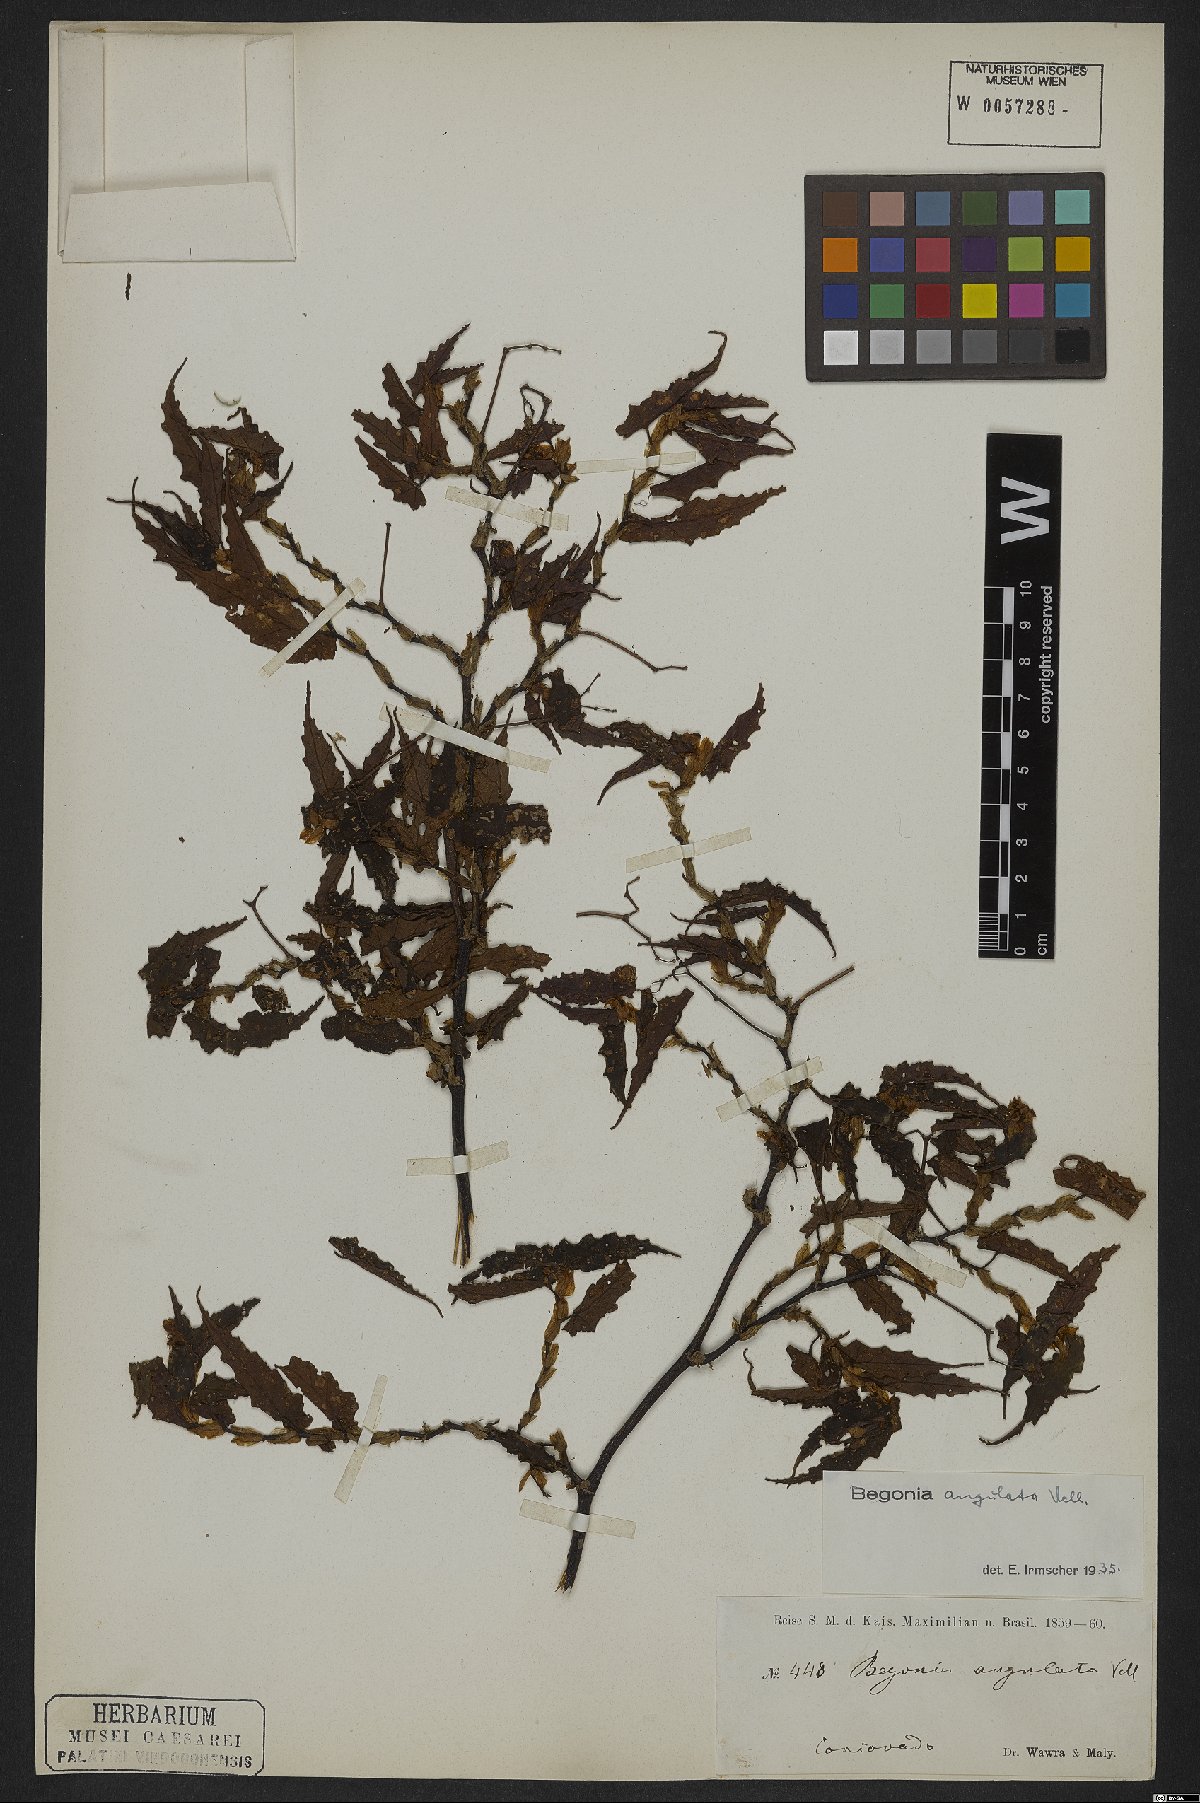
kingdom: Plantae
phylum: Tracheophyta
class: Magnoliopsida
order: Cucurbitales
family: Begoniaceae
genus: Begonia
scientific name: Begonia angulata
